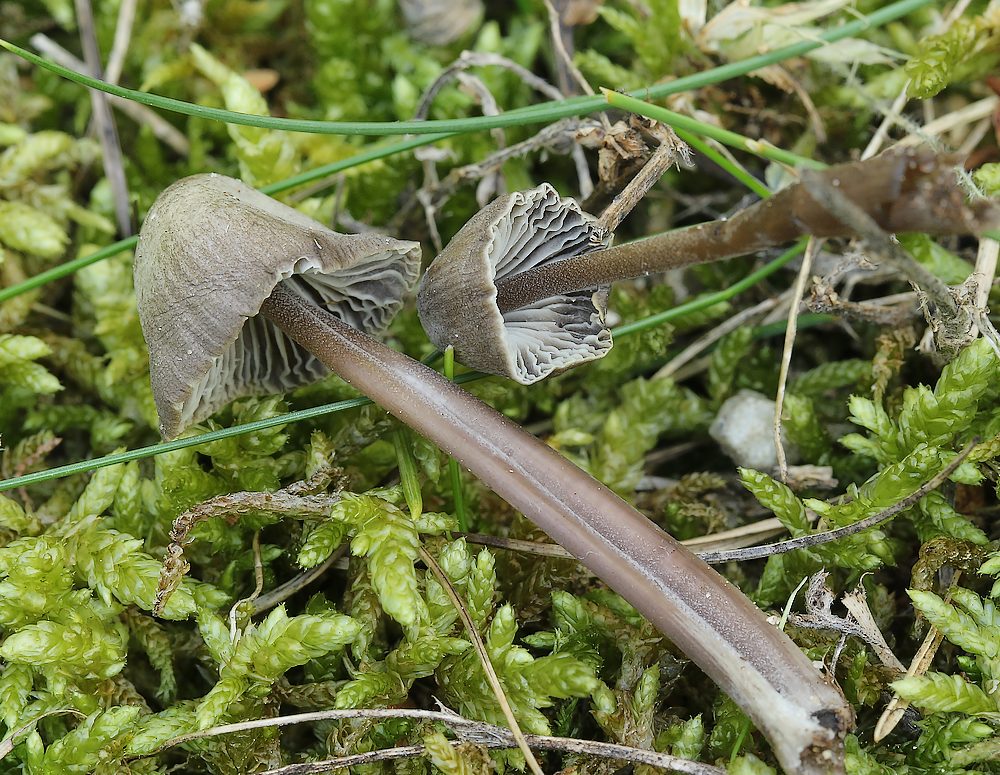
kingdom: Fungi
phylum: Basidiomycota
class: Agaricomycetes
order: Agaricales
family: Mycenaceae
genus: Mycena
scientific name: Mycena leptocephala
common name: klor-huesvamp
